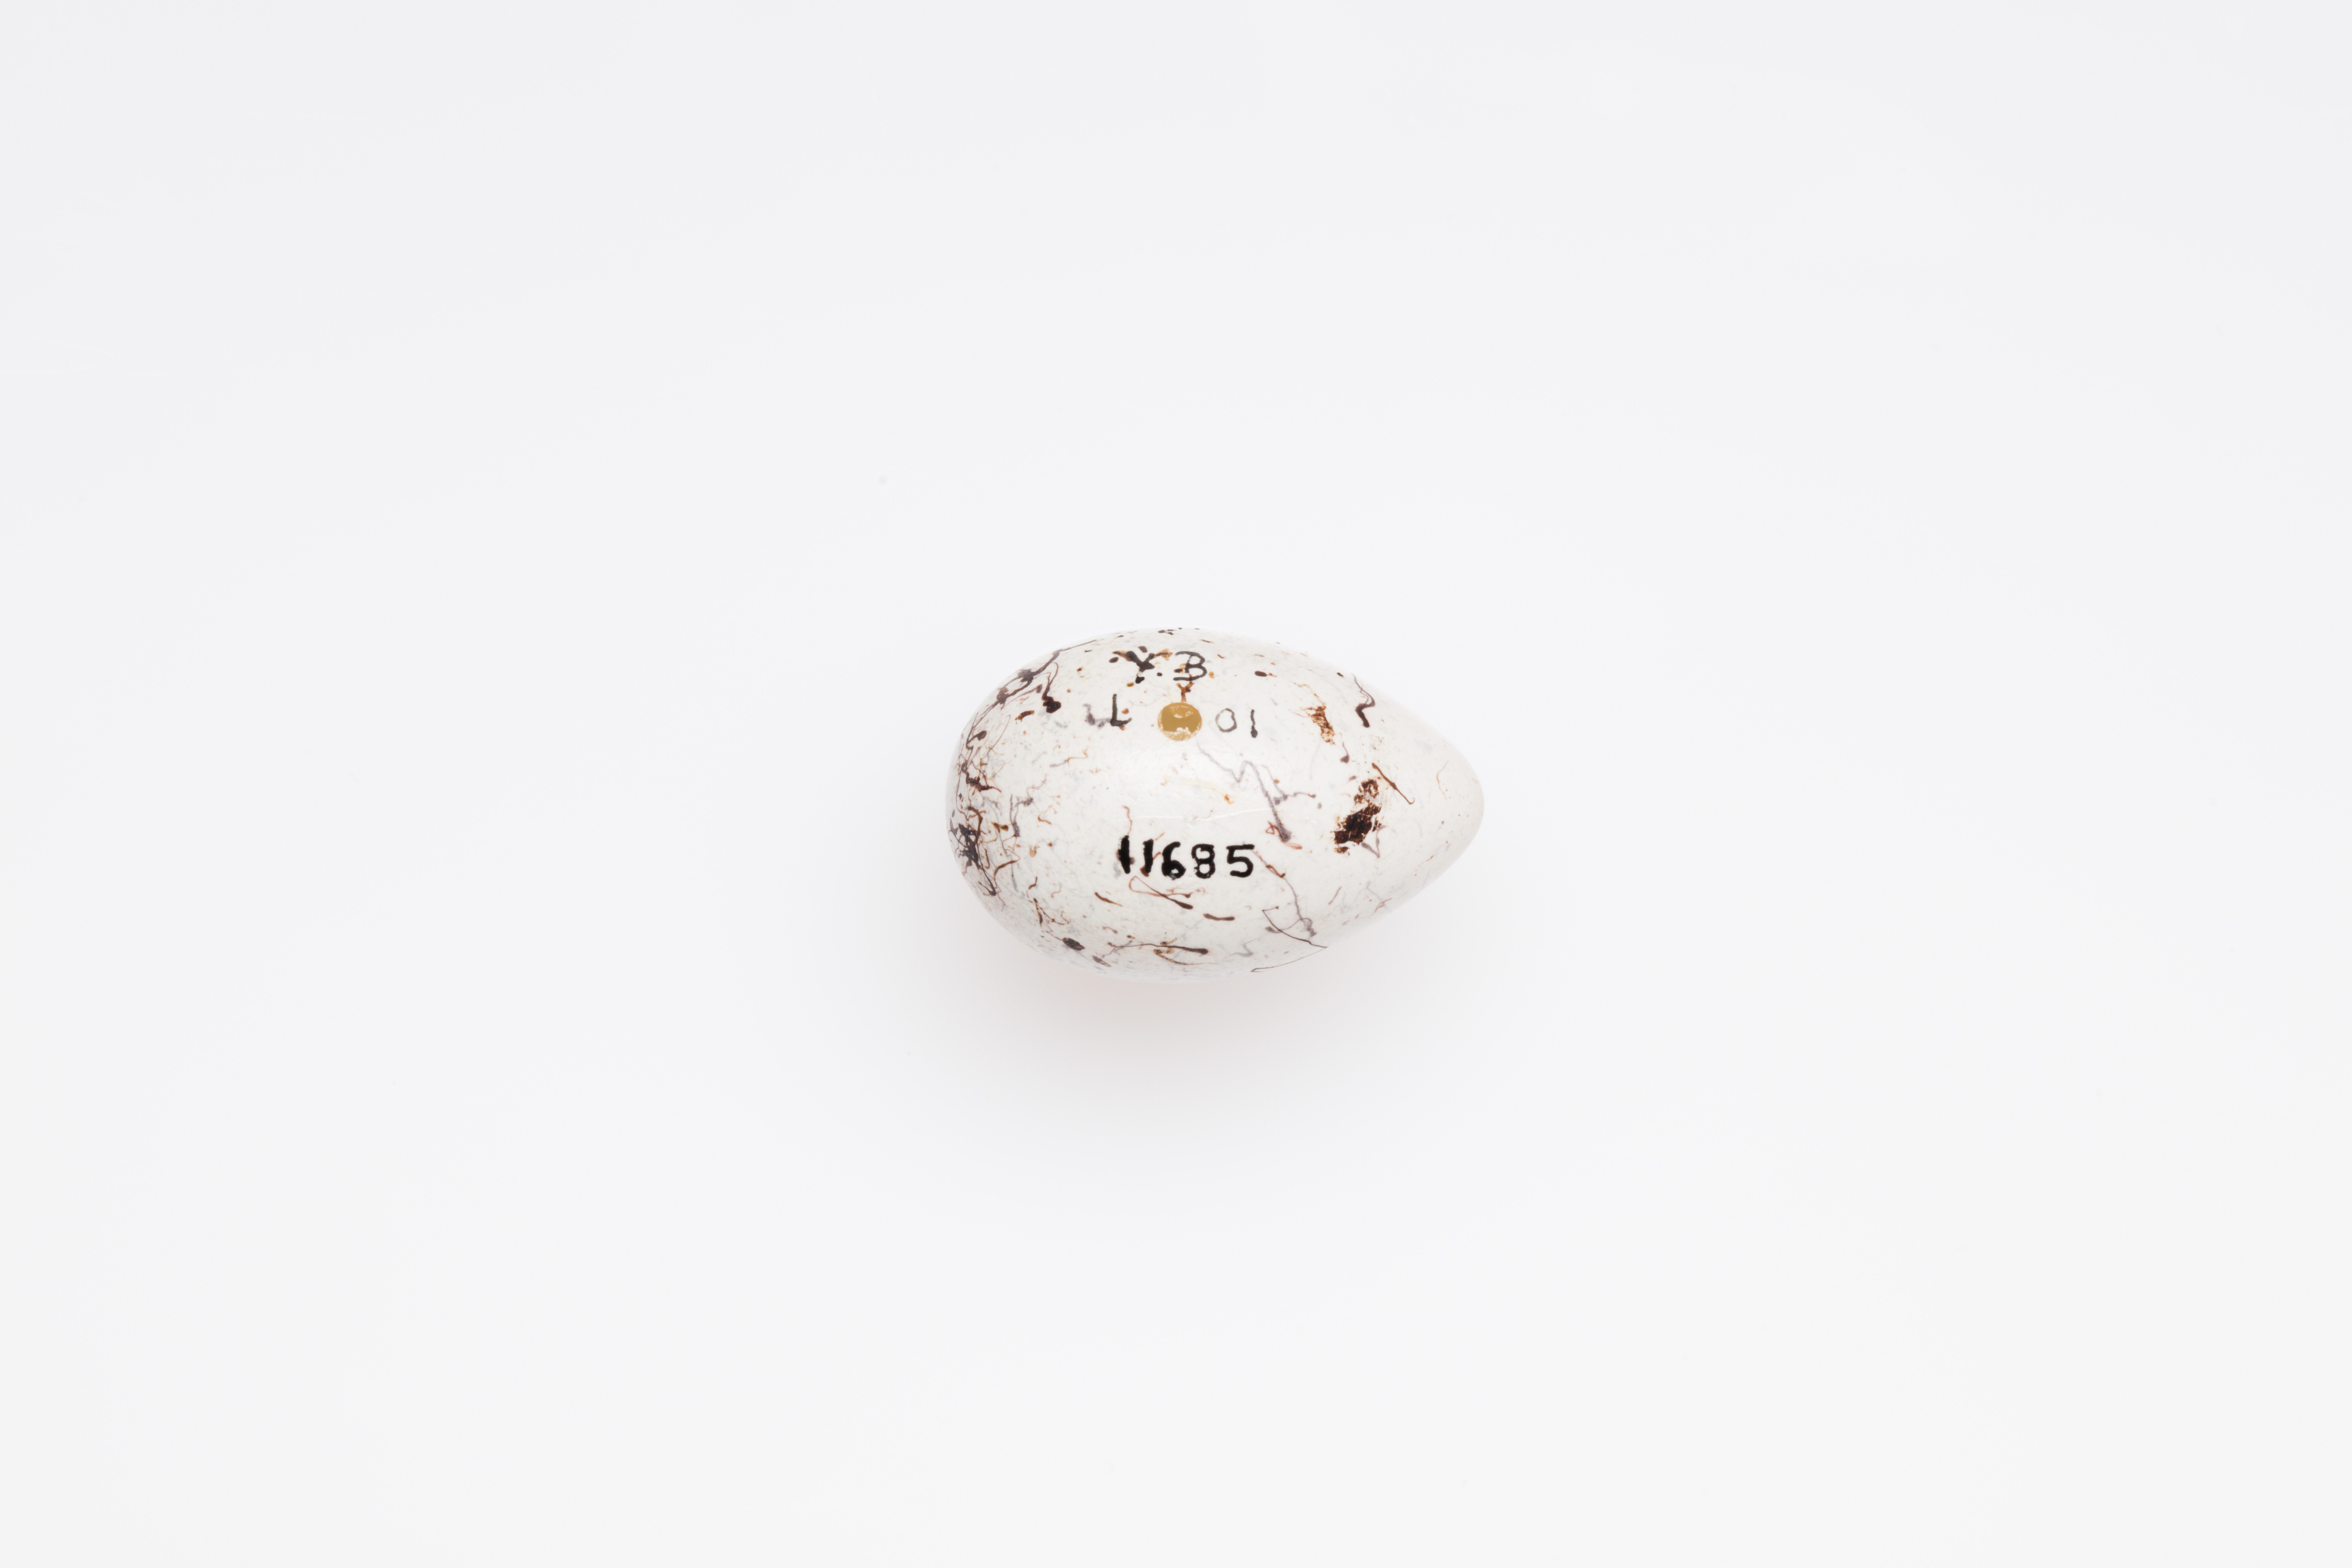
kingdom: Animalia
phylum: Chordata
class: Aves
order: Passeriformes
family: Emberizidae
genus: Emberiza
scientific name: Emberiza citrinella
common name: Yellowhammer
